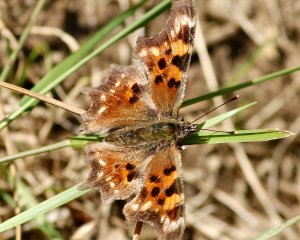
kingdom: Animalia
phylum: Arthropoda
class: Insecta
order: Lepidoptera
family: Nymphalidae
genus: Polygonia
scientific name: Polygonia faunus
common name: Green Comma
